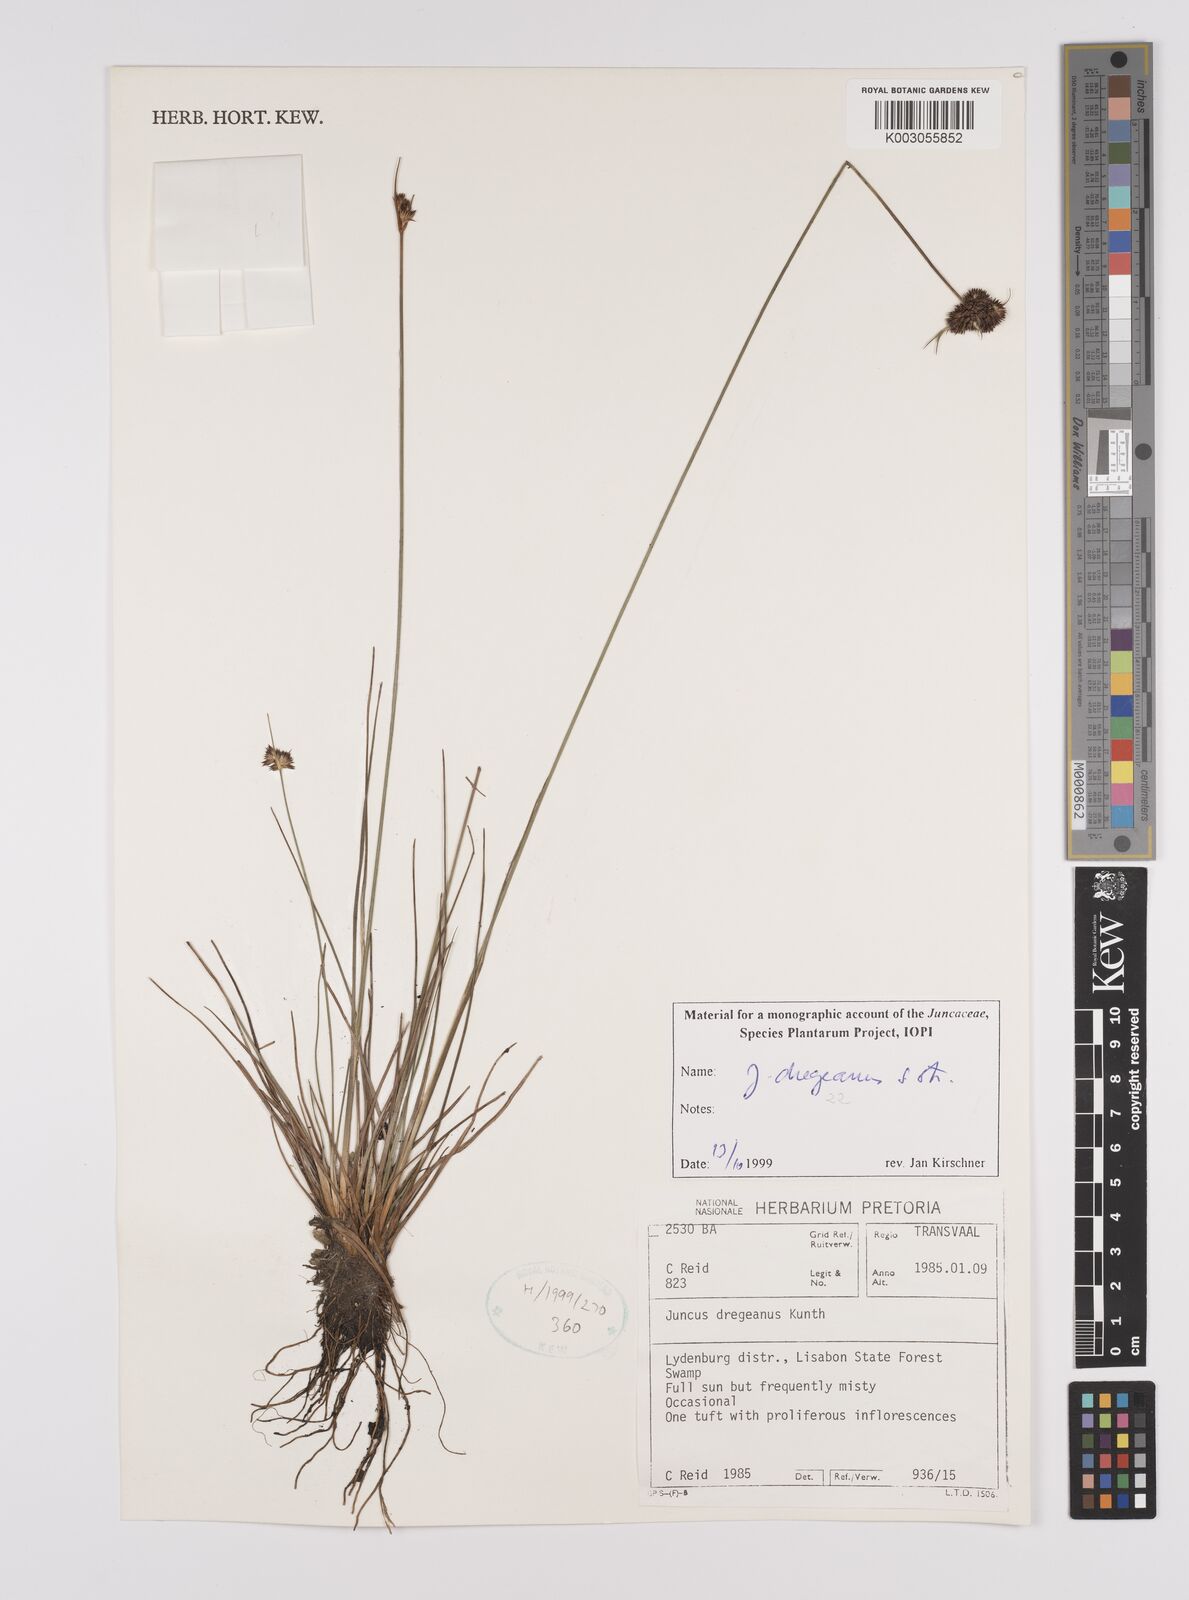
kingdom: Plantae
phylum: Tracheophyta
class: Liliopsida
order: Poales
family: Juncaceae
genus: Juncus
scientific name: Juncus dregeanus
